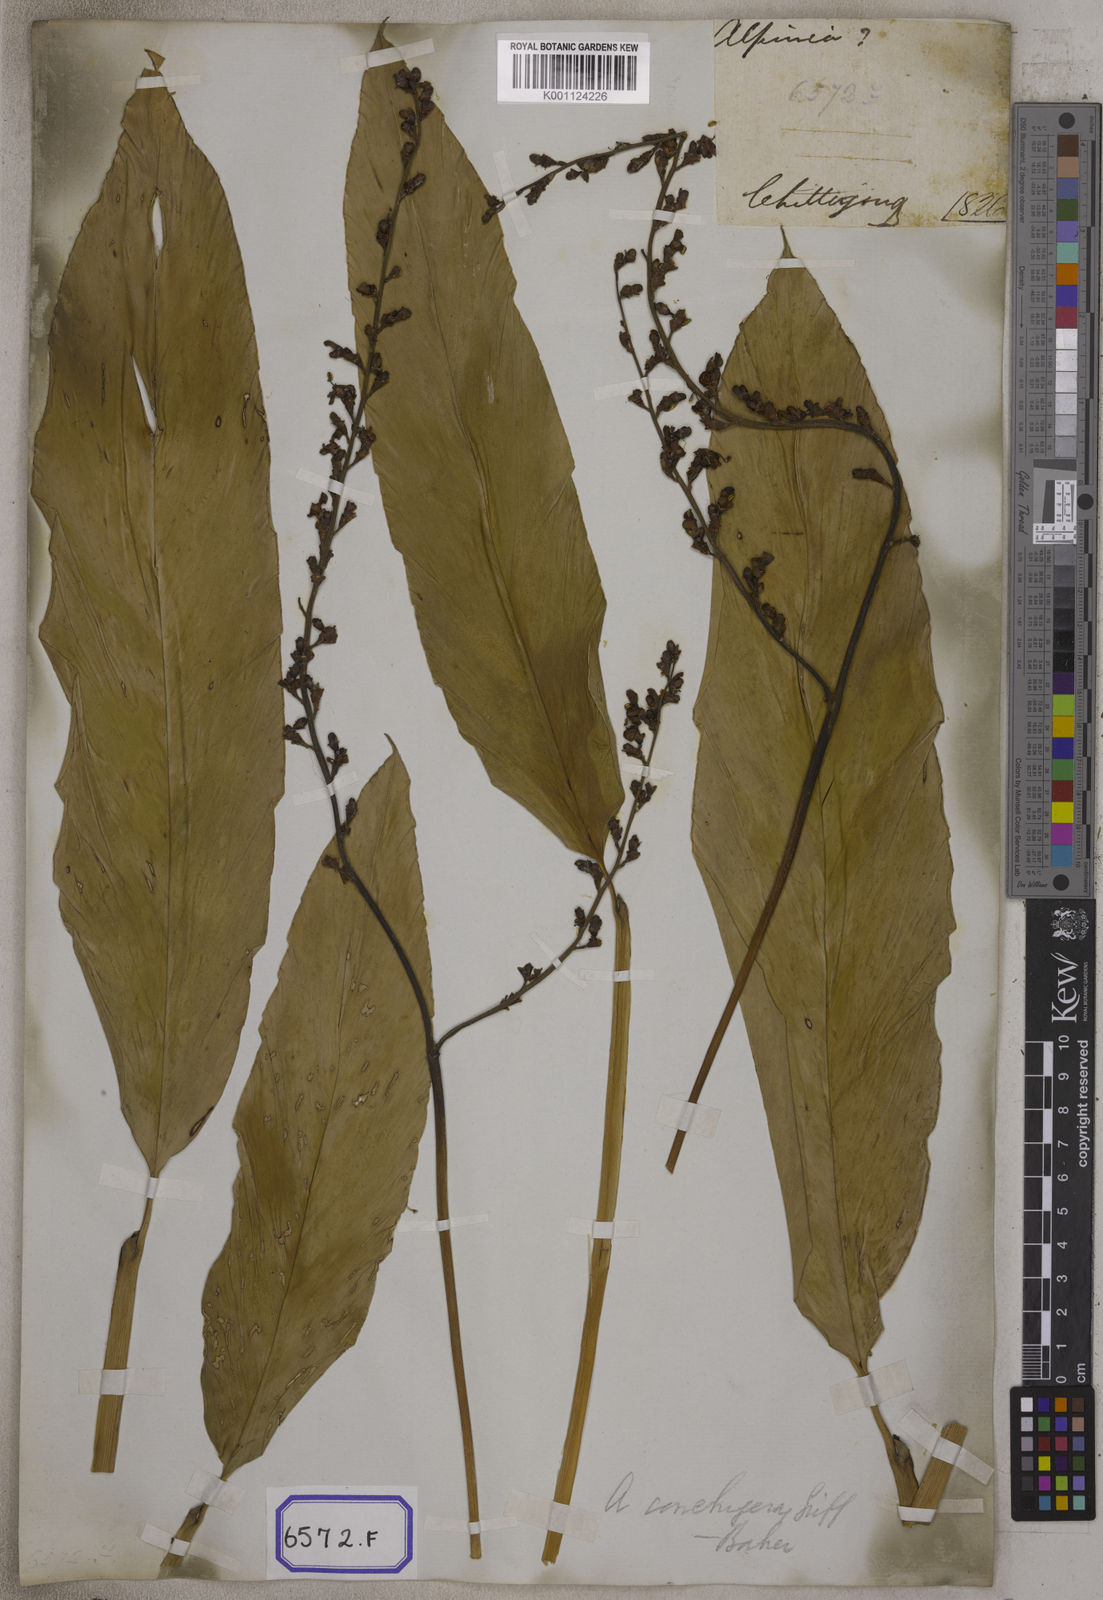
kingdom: Plantae
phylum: Tracheophyta
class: Liliopsida
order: Zingiberales
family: Zingiberaceae
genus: Alpinia
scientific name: Alpinia galanga
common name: Siamese-ginger
